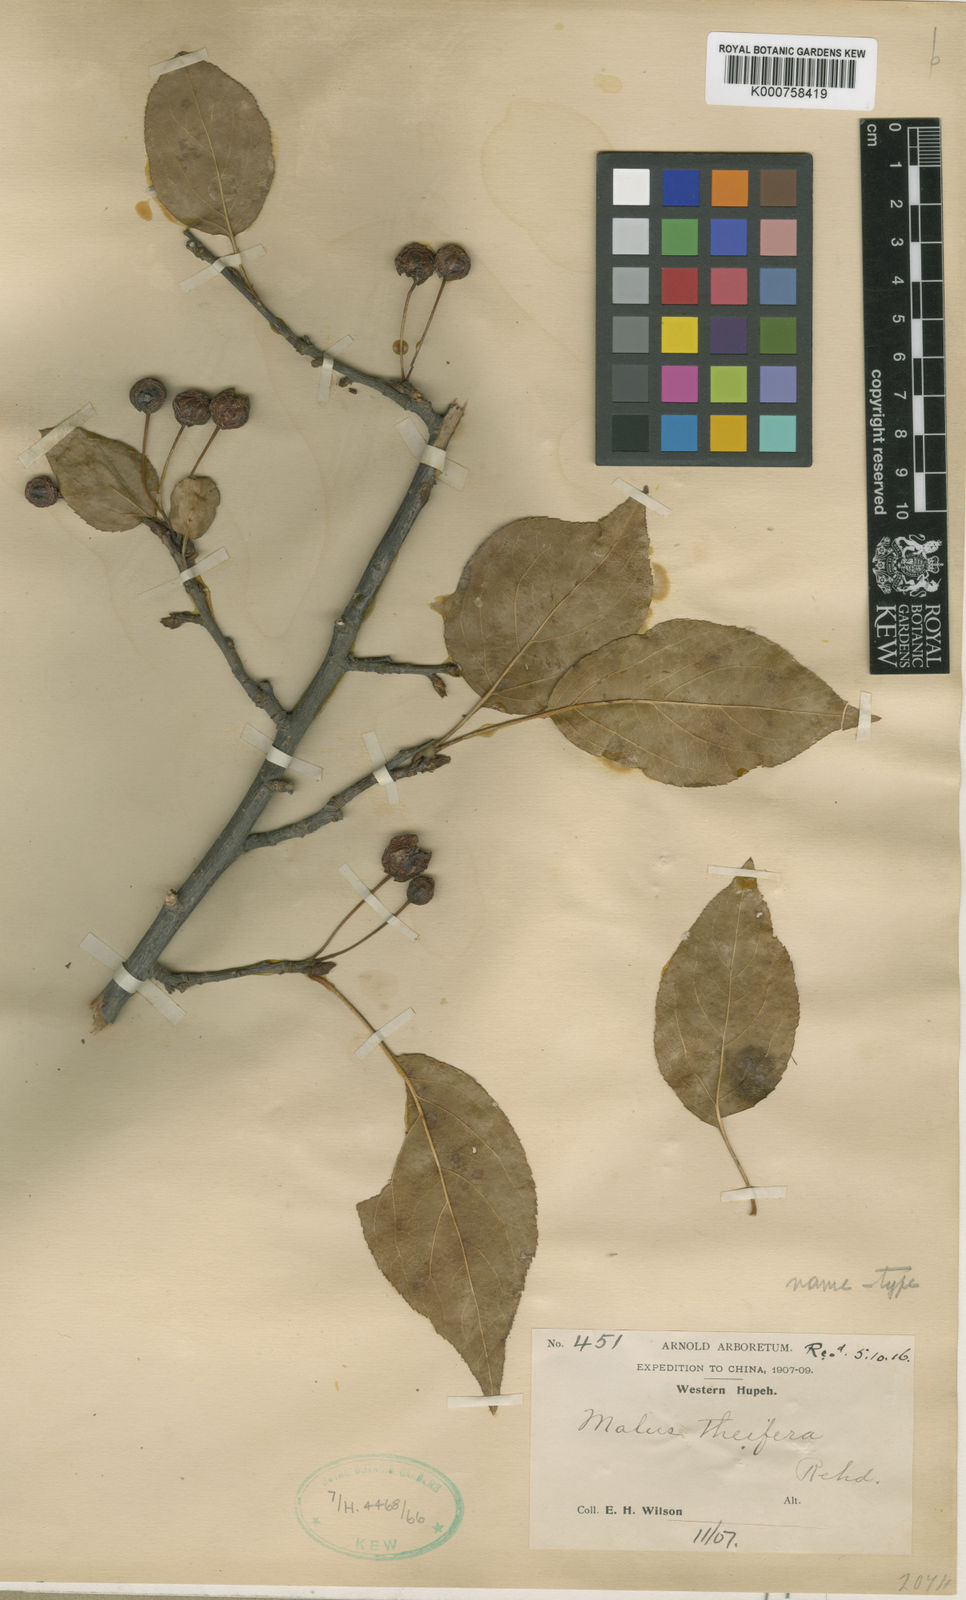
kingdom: Plantae
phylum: Tracheophyta
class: Magnoliopsida
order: Rosales
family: Rosaceae
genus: Malus
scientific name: Malus hupehensis
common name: Chinese crab apple
